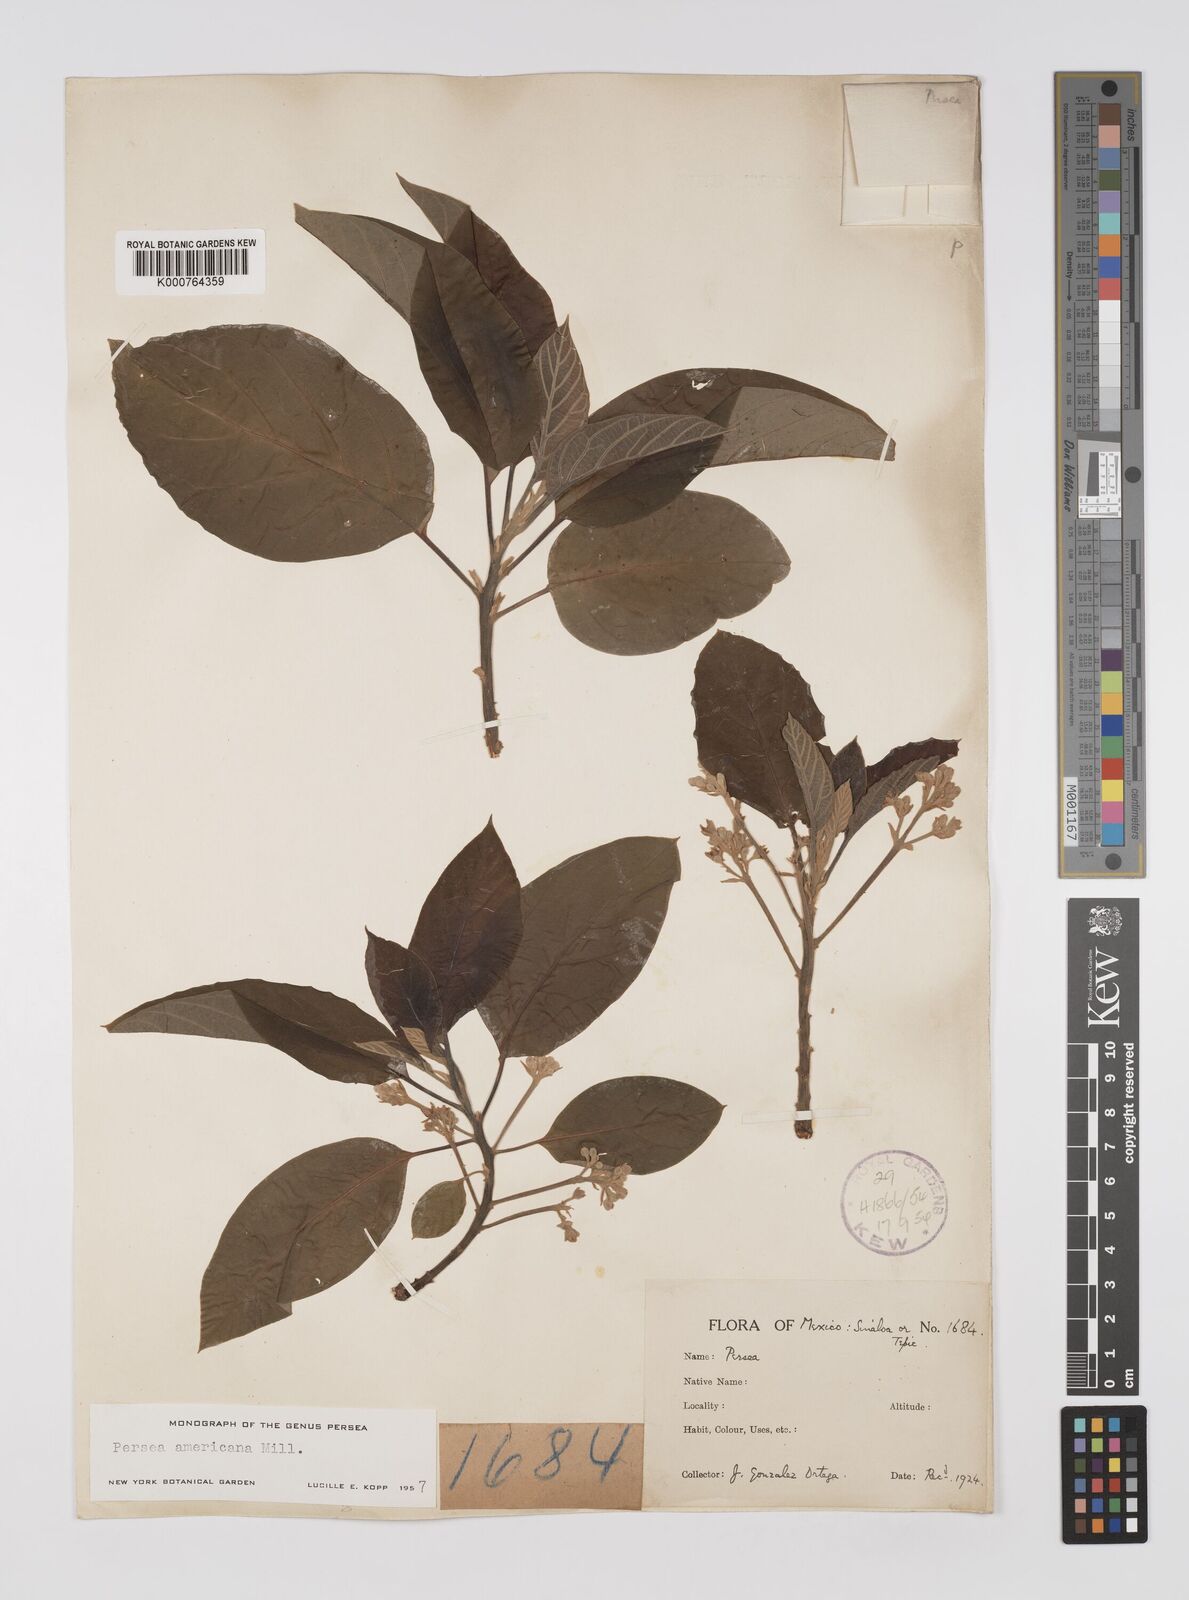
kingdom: Plantae
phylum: Tracheophyta
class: Magnoliopsida
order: Laurales
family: Lauraceae
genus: Persea
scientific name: Persea americana
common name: Avocado
